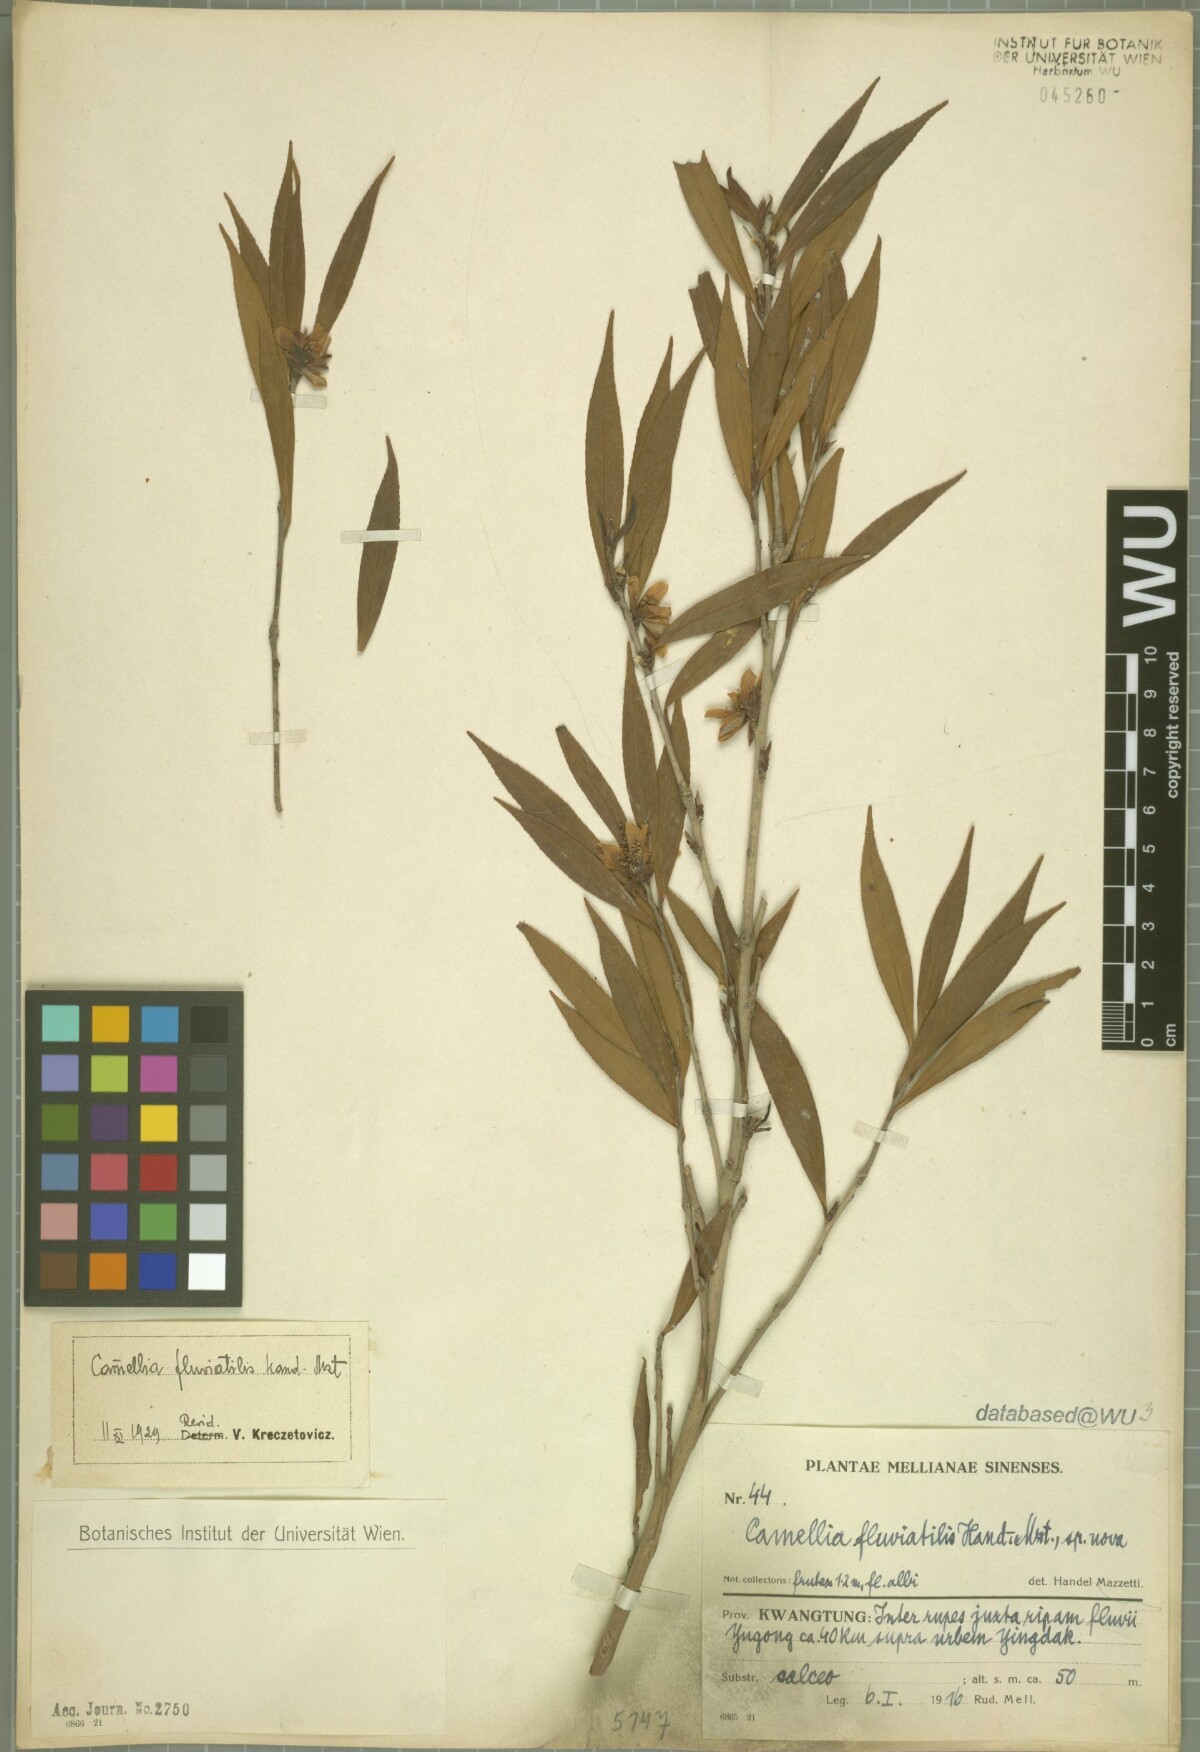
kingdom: Plantae
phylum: Tracheophyta
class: Magnoliopsida
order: Ericales
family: Theaceae
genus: Camellia
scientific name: Camellia fluviatilis
